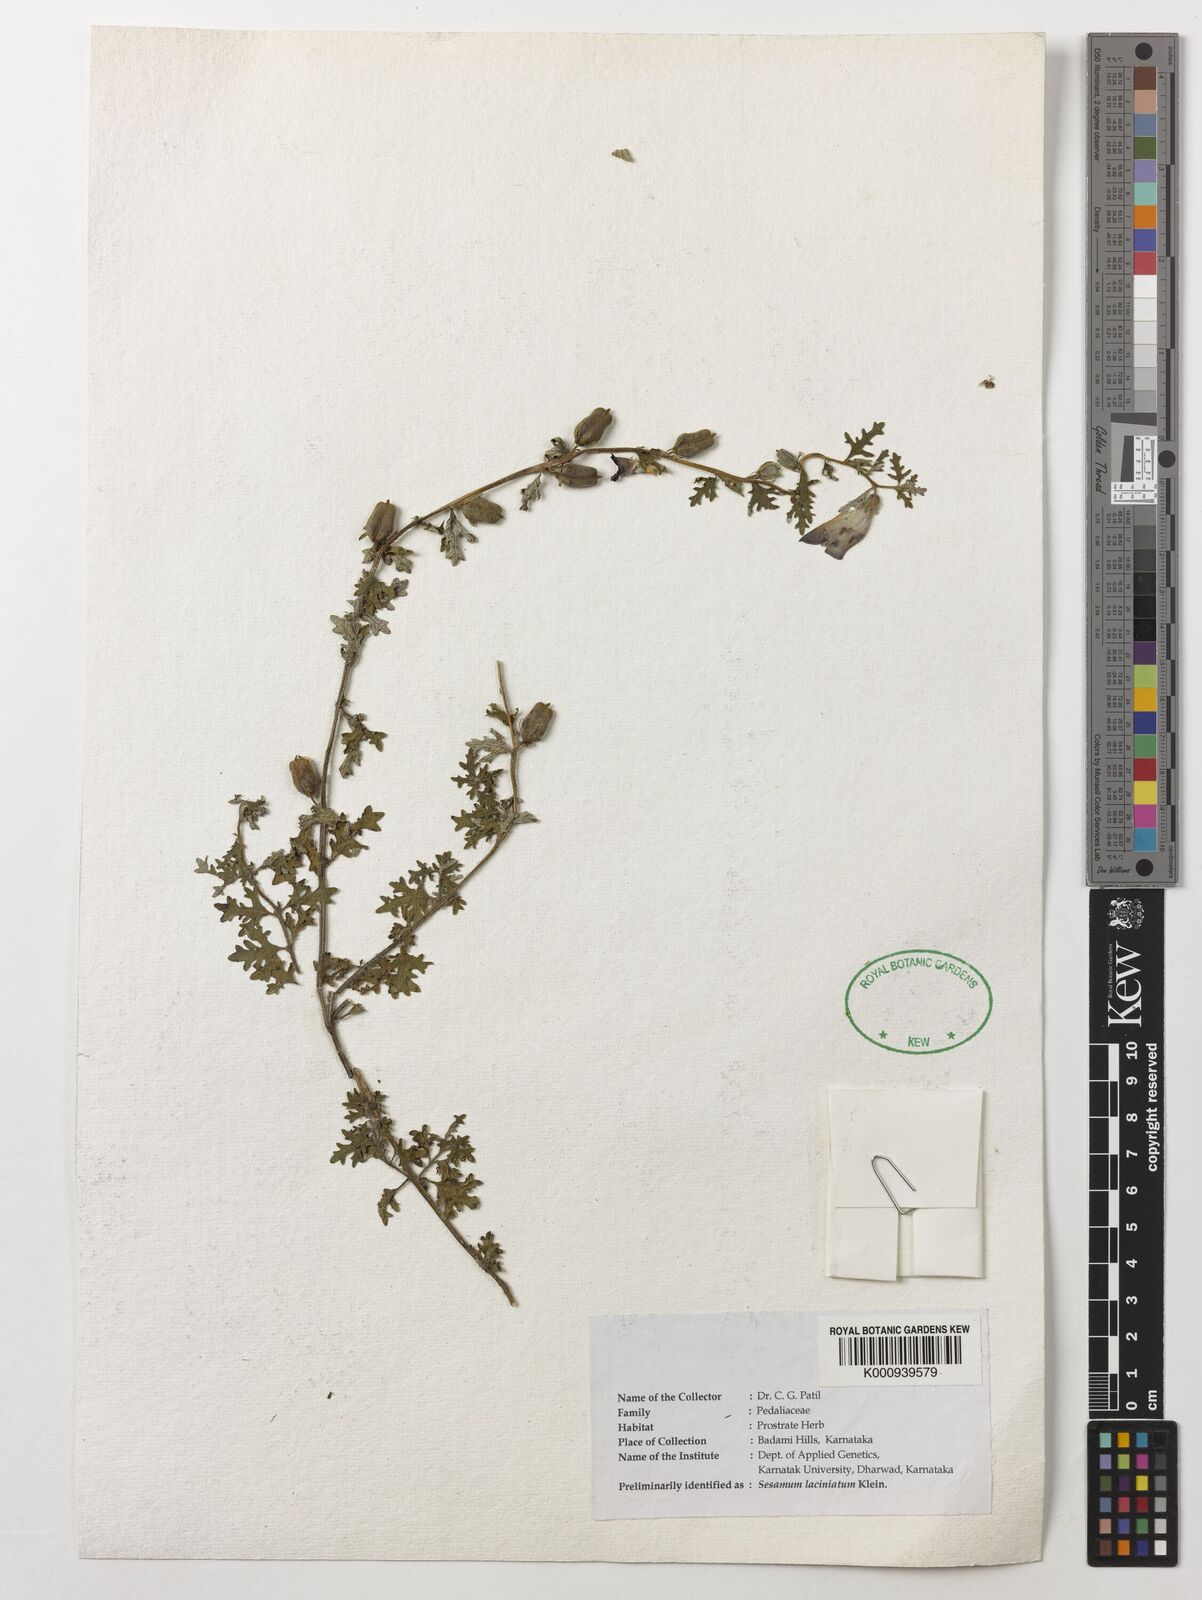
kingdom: Plantae
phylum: Tracheophyta
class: Magnoliopsida
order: Lamiales
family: Pedaliaceae
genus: Sesamum
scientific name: Sesamum prostratum
